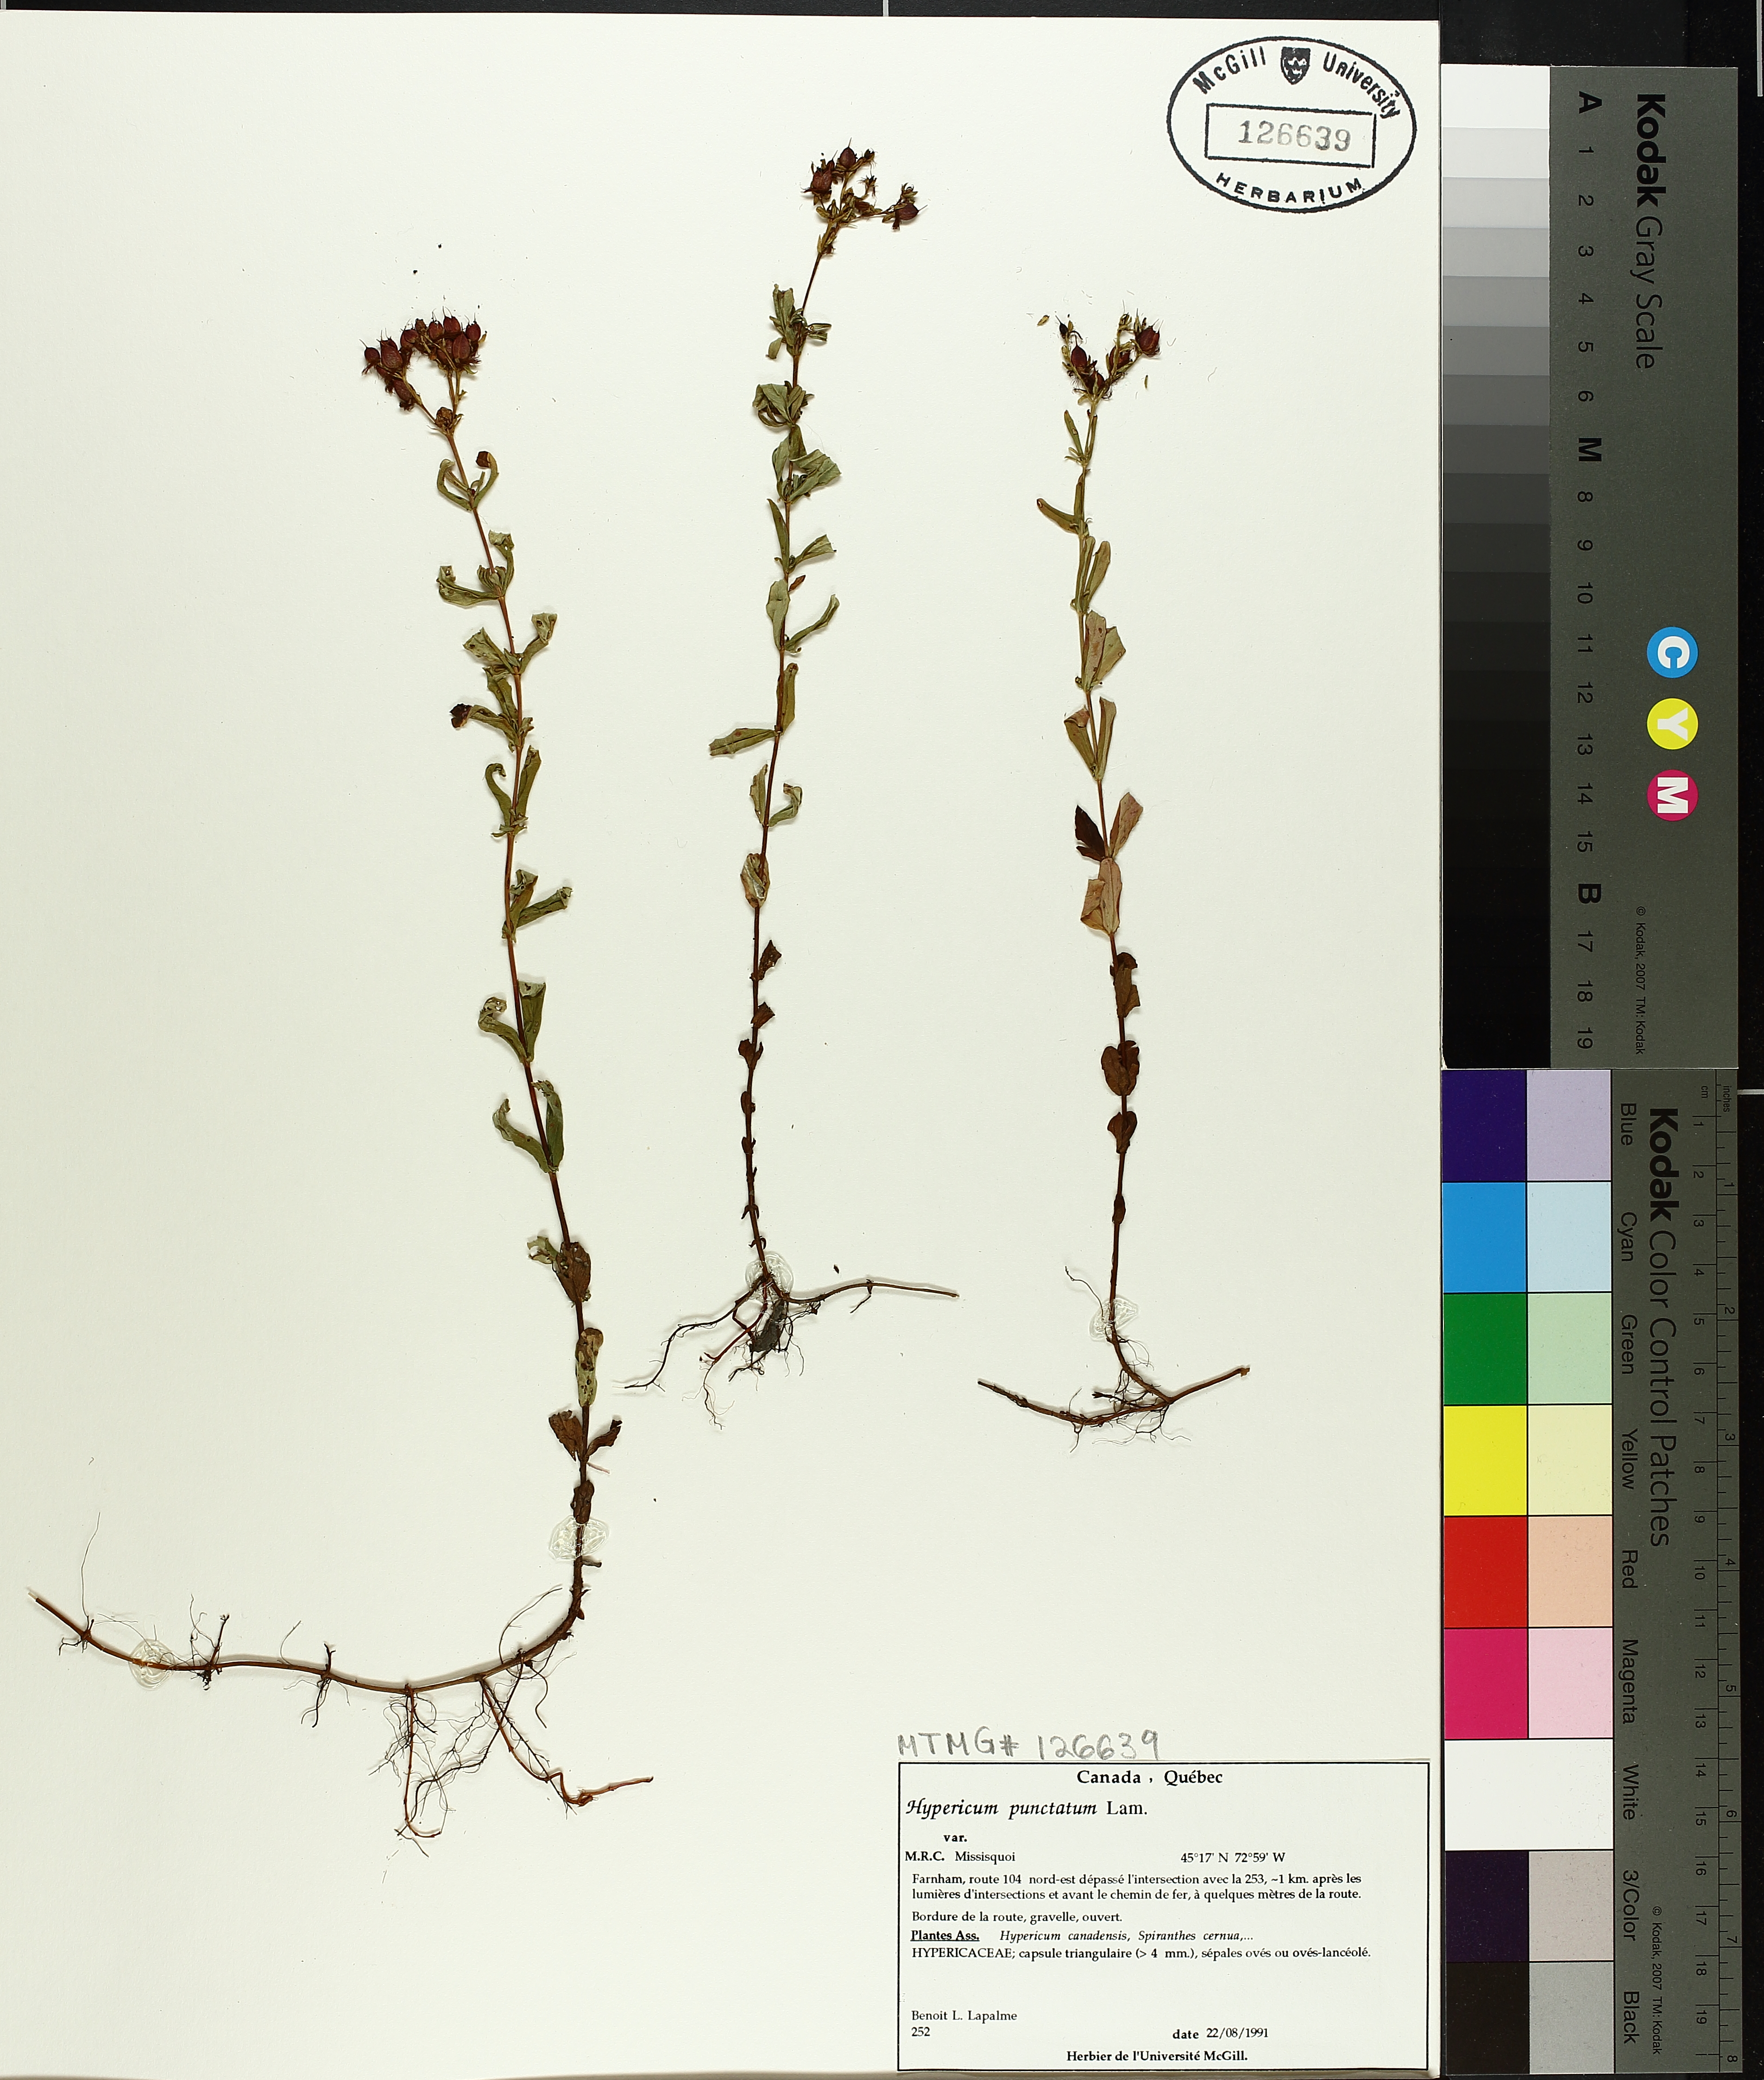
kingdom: Plantae
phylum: Tracheophyta
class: Magnoliopsida
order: Malpighiales
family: Hypericaceae
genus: Hypericum
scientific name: Hypericum punctatum
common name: Spotted st. john's-wort
